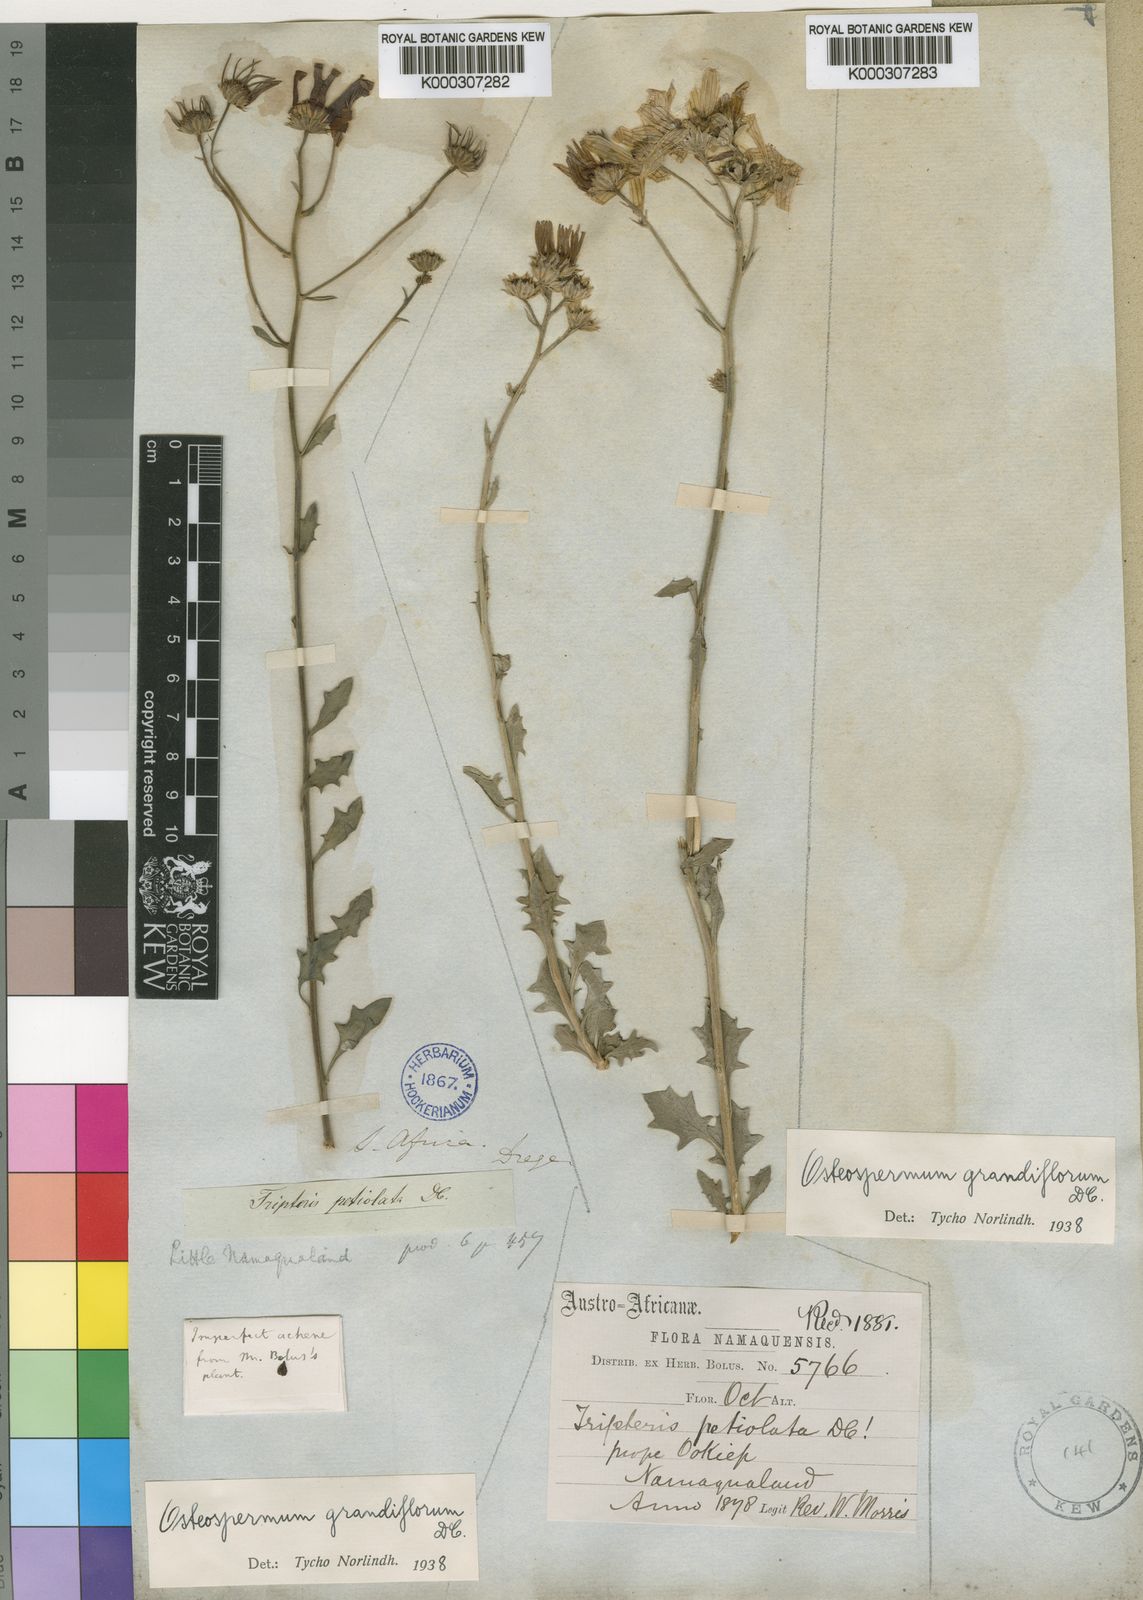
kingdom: Plantae
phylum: Tracheophyta
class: Magnoliopsida
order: Asterales
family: Asteraceae
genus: Osteospermum
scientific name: Osteospermum grandiflorum
